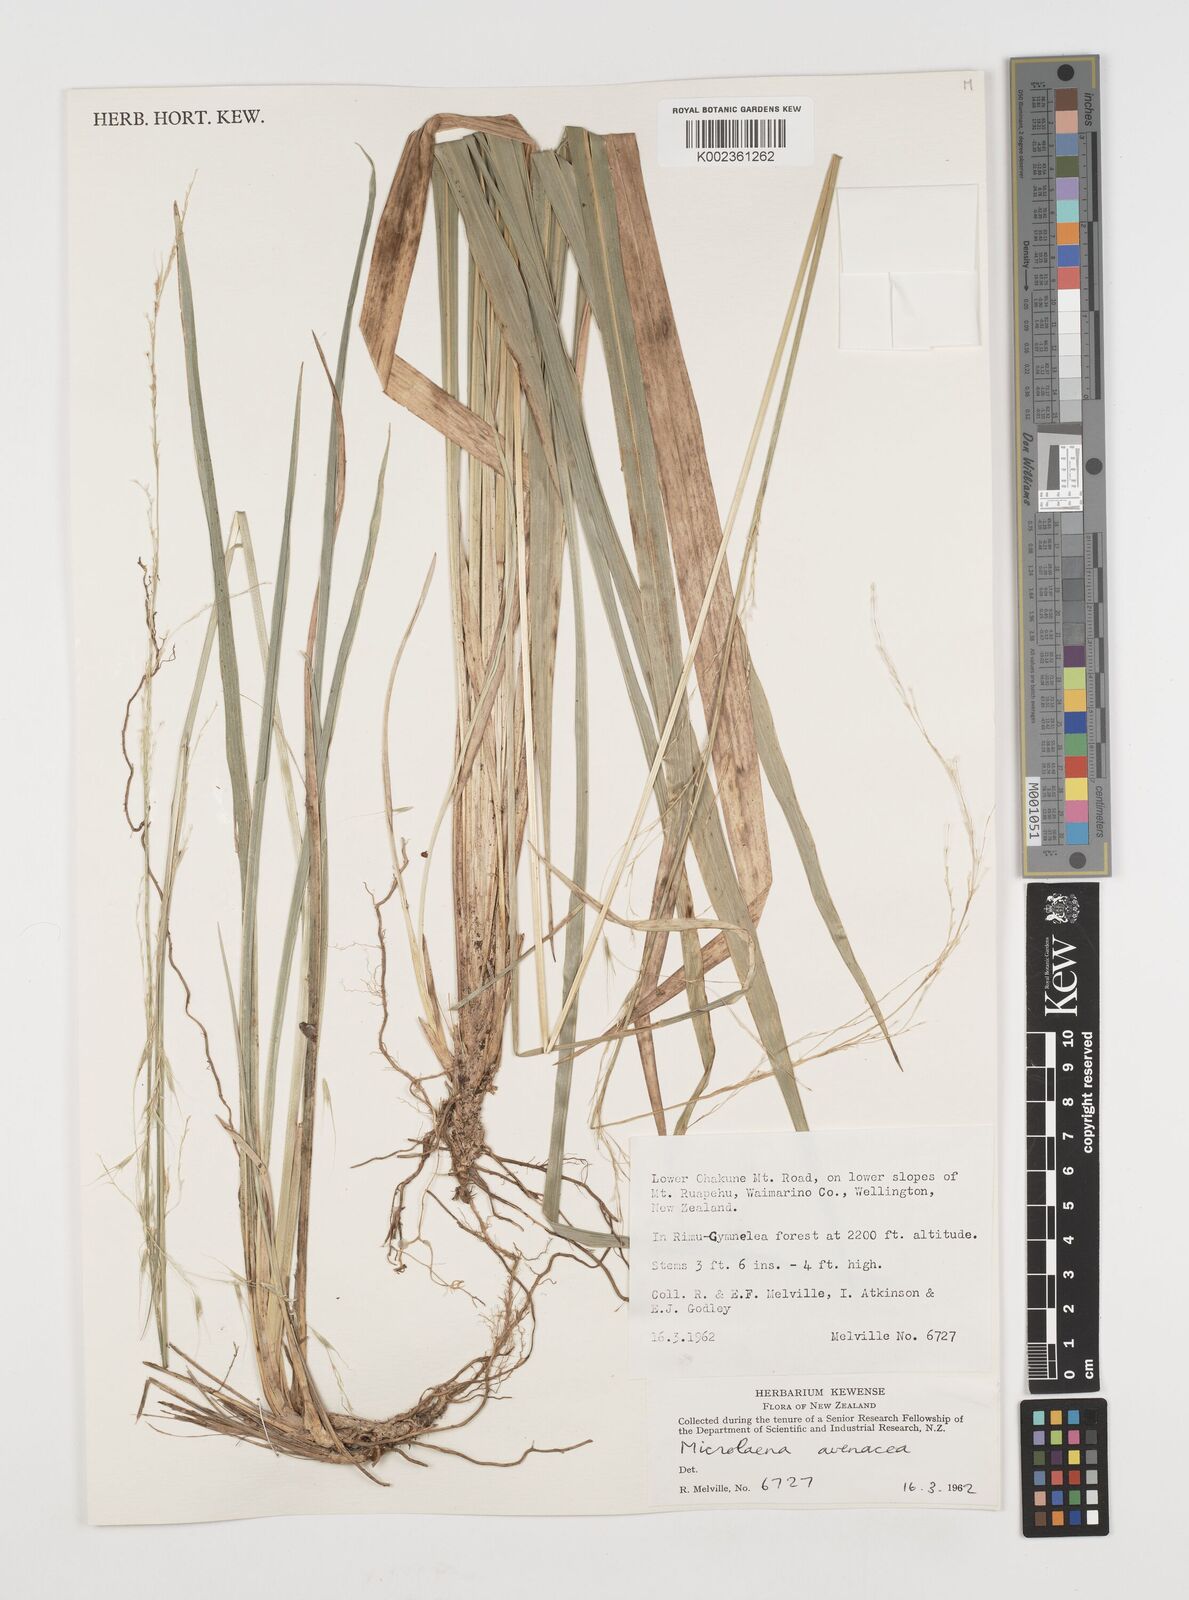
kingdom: Plantae
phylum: Tracheophyta
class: Liliopsida
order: Poales
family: Poaceae
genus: Ehrharta
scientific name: Ehrharta diplax
